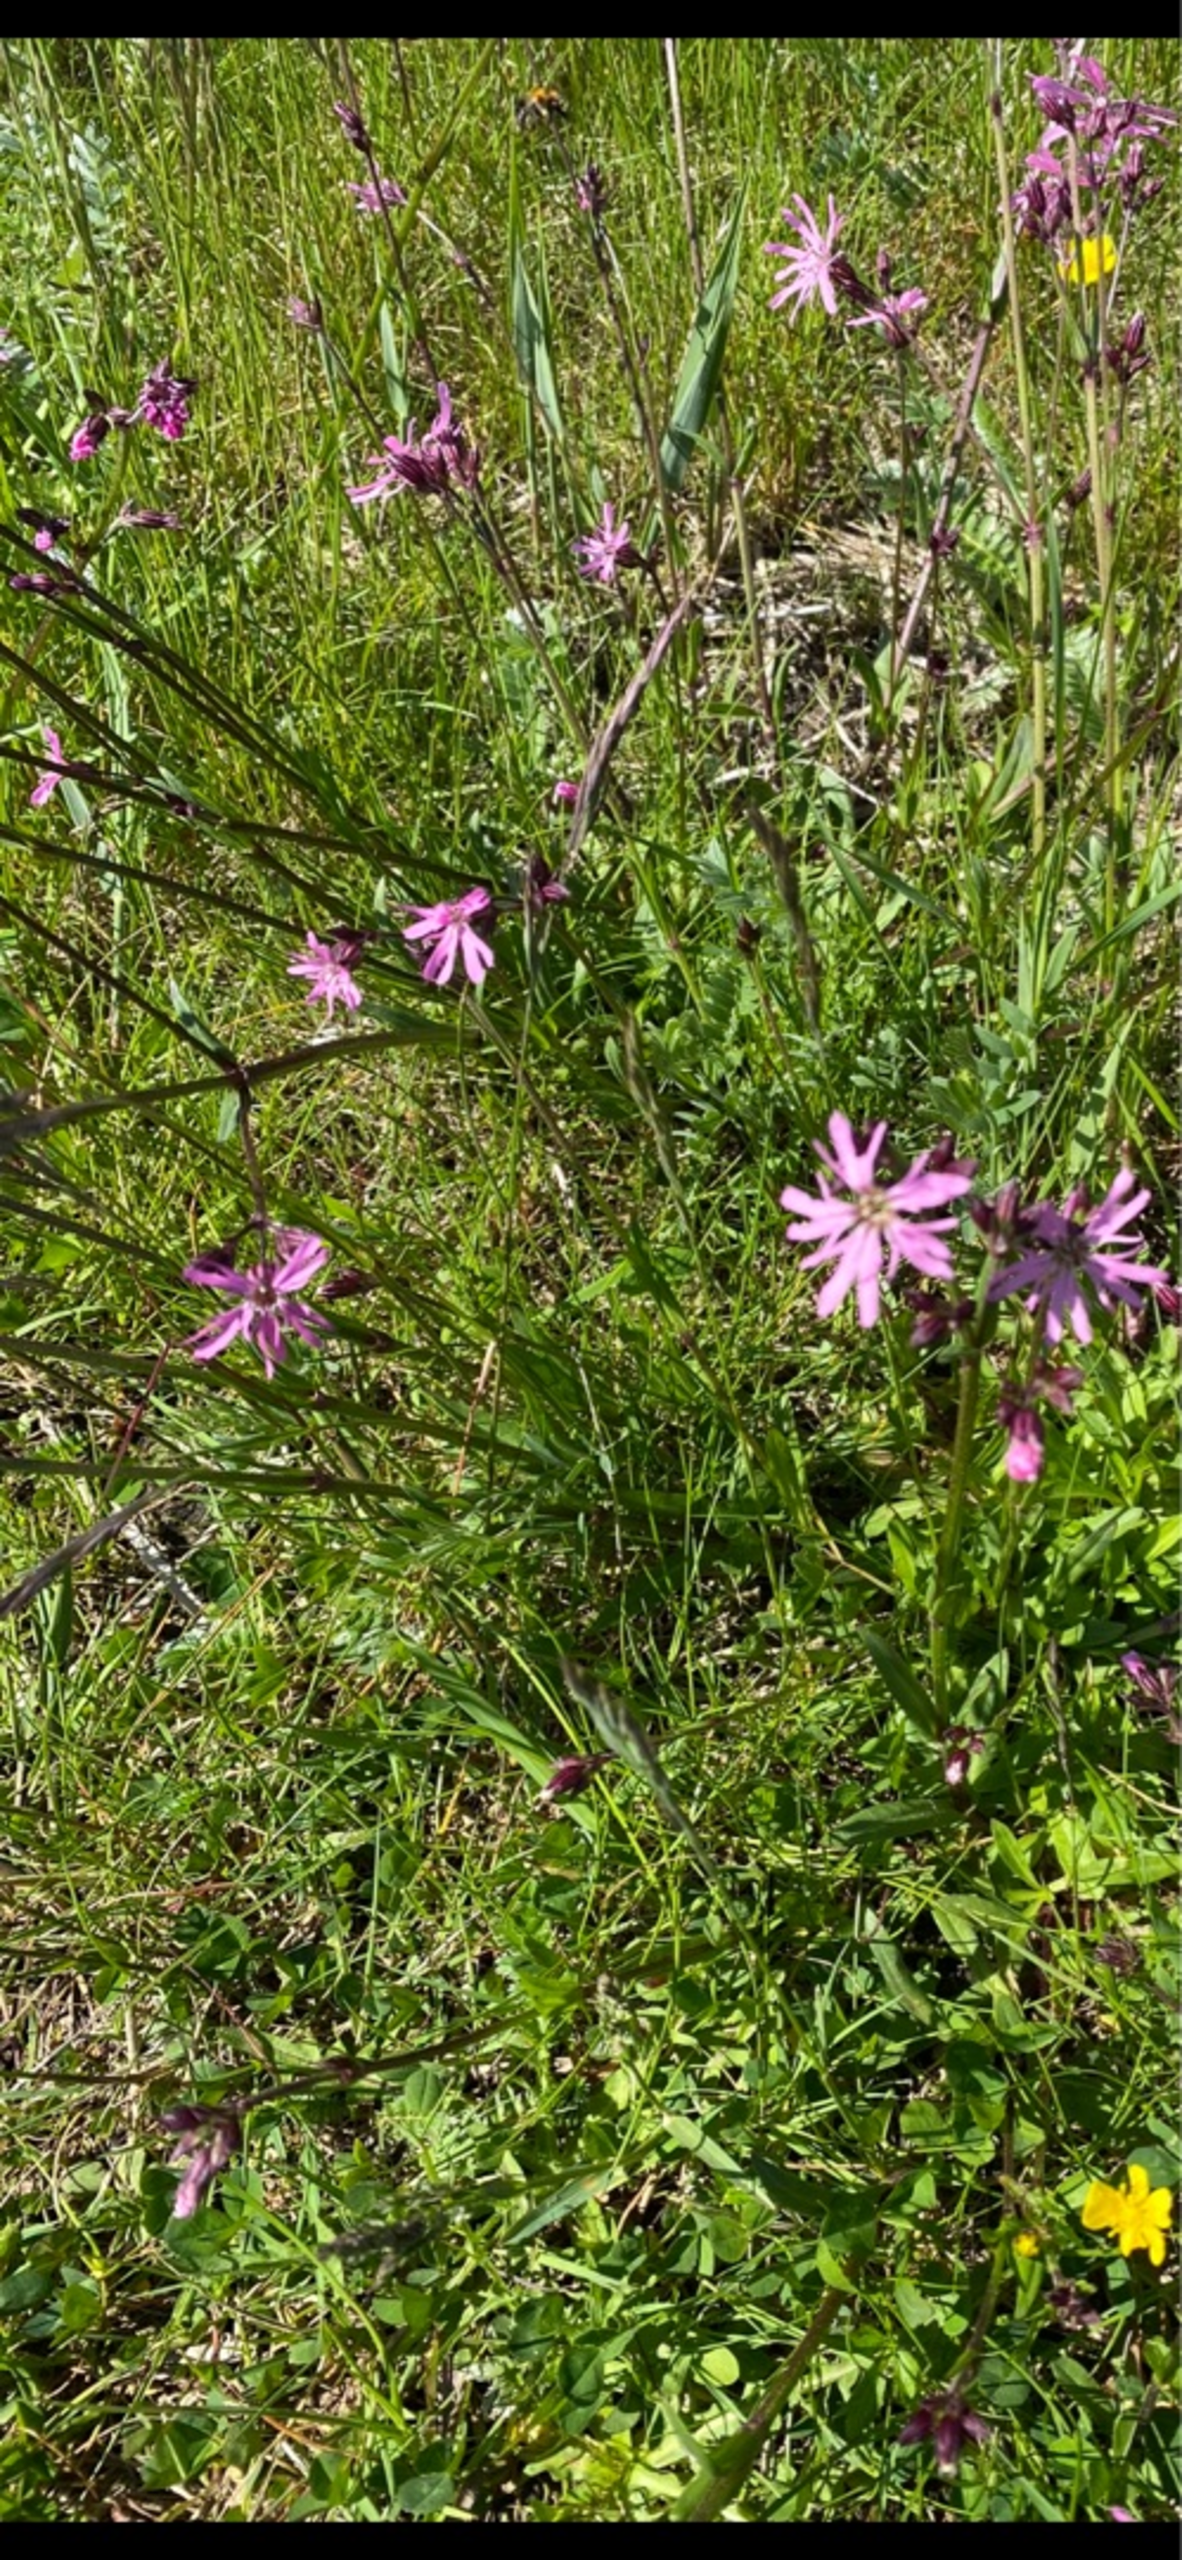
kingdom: Plantae
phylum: Tracheophyta
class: Magnoliopsida
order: Caryophyllales
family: Caryophyllaceae
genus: Silene
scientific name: Silene flos-cuculi
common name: Trævlekrone
